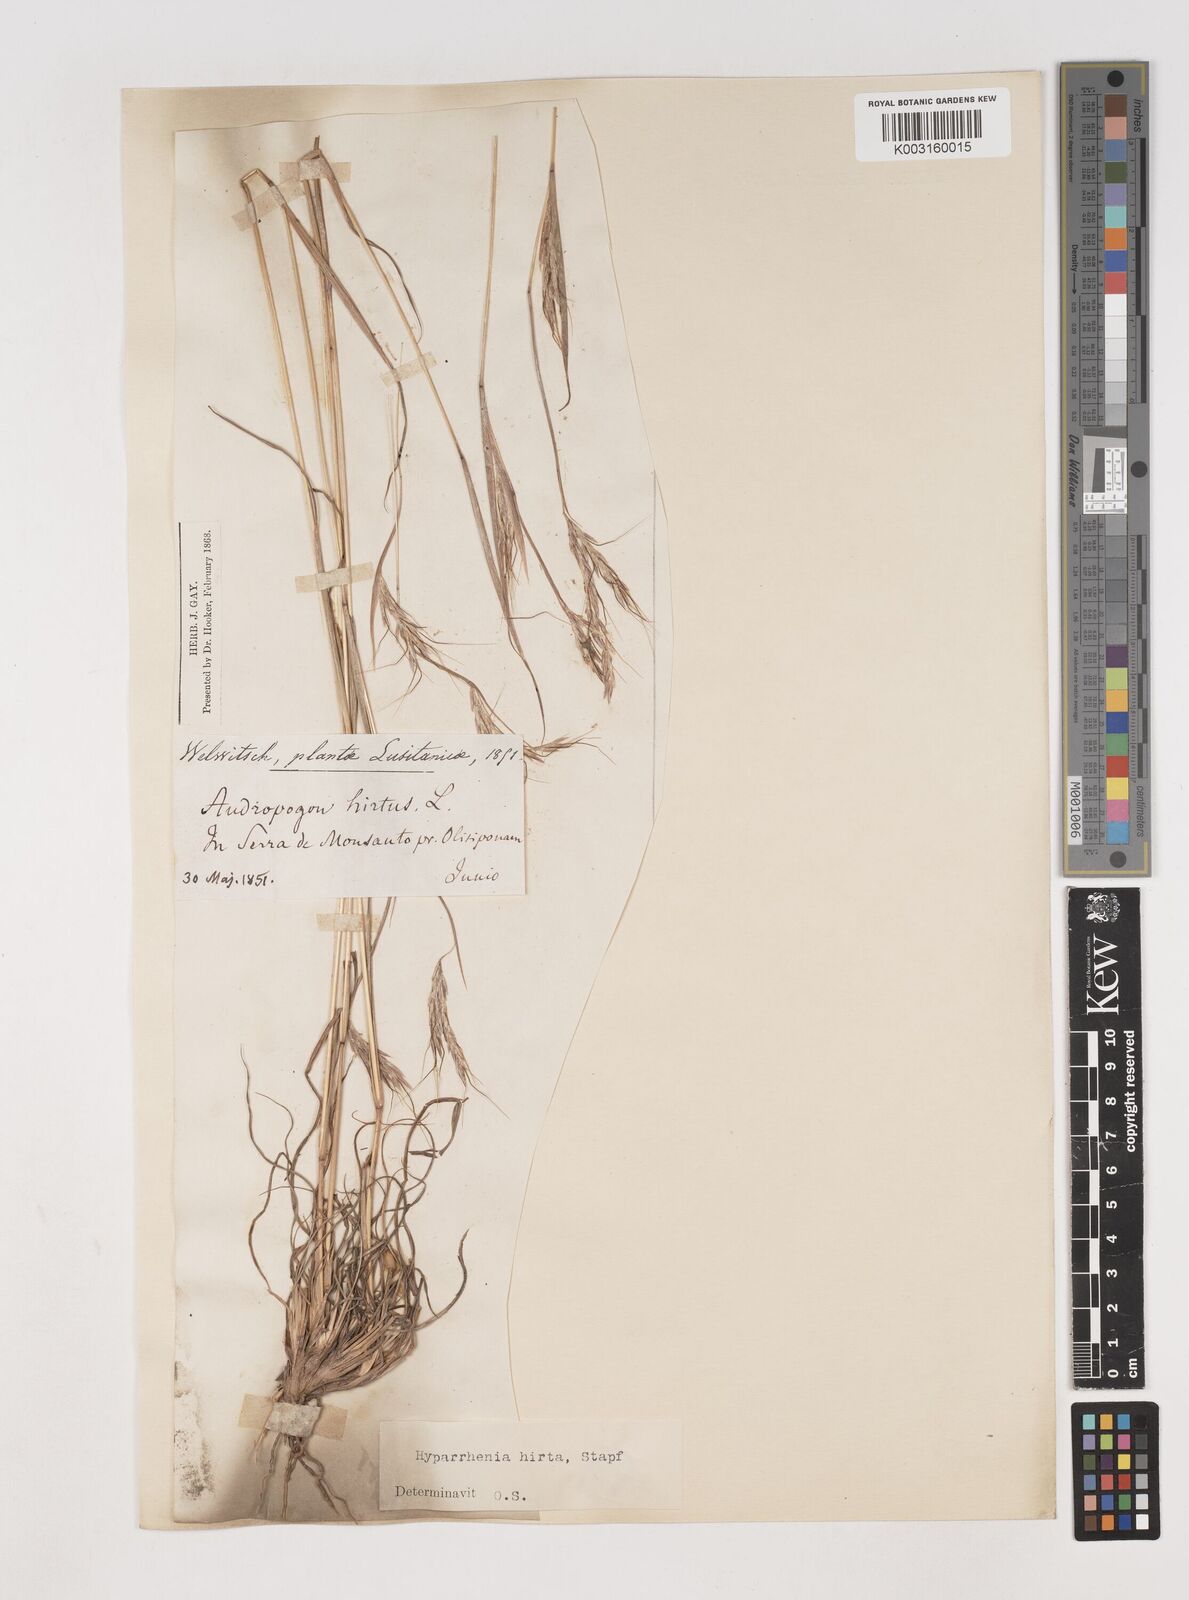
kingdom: Plantae
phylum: Tracheophyta
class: Liliopsida
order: Poales
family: Poaceae
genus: Hyparrhenia
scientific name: Hyparrhenia hirta
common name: Thatching grass
